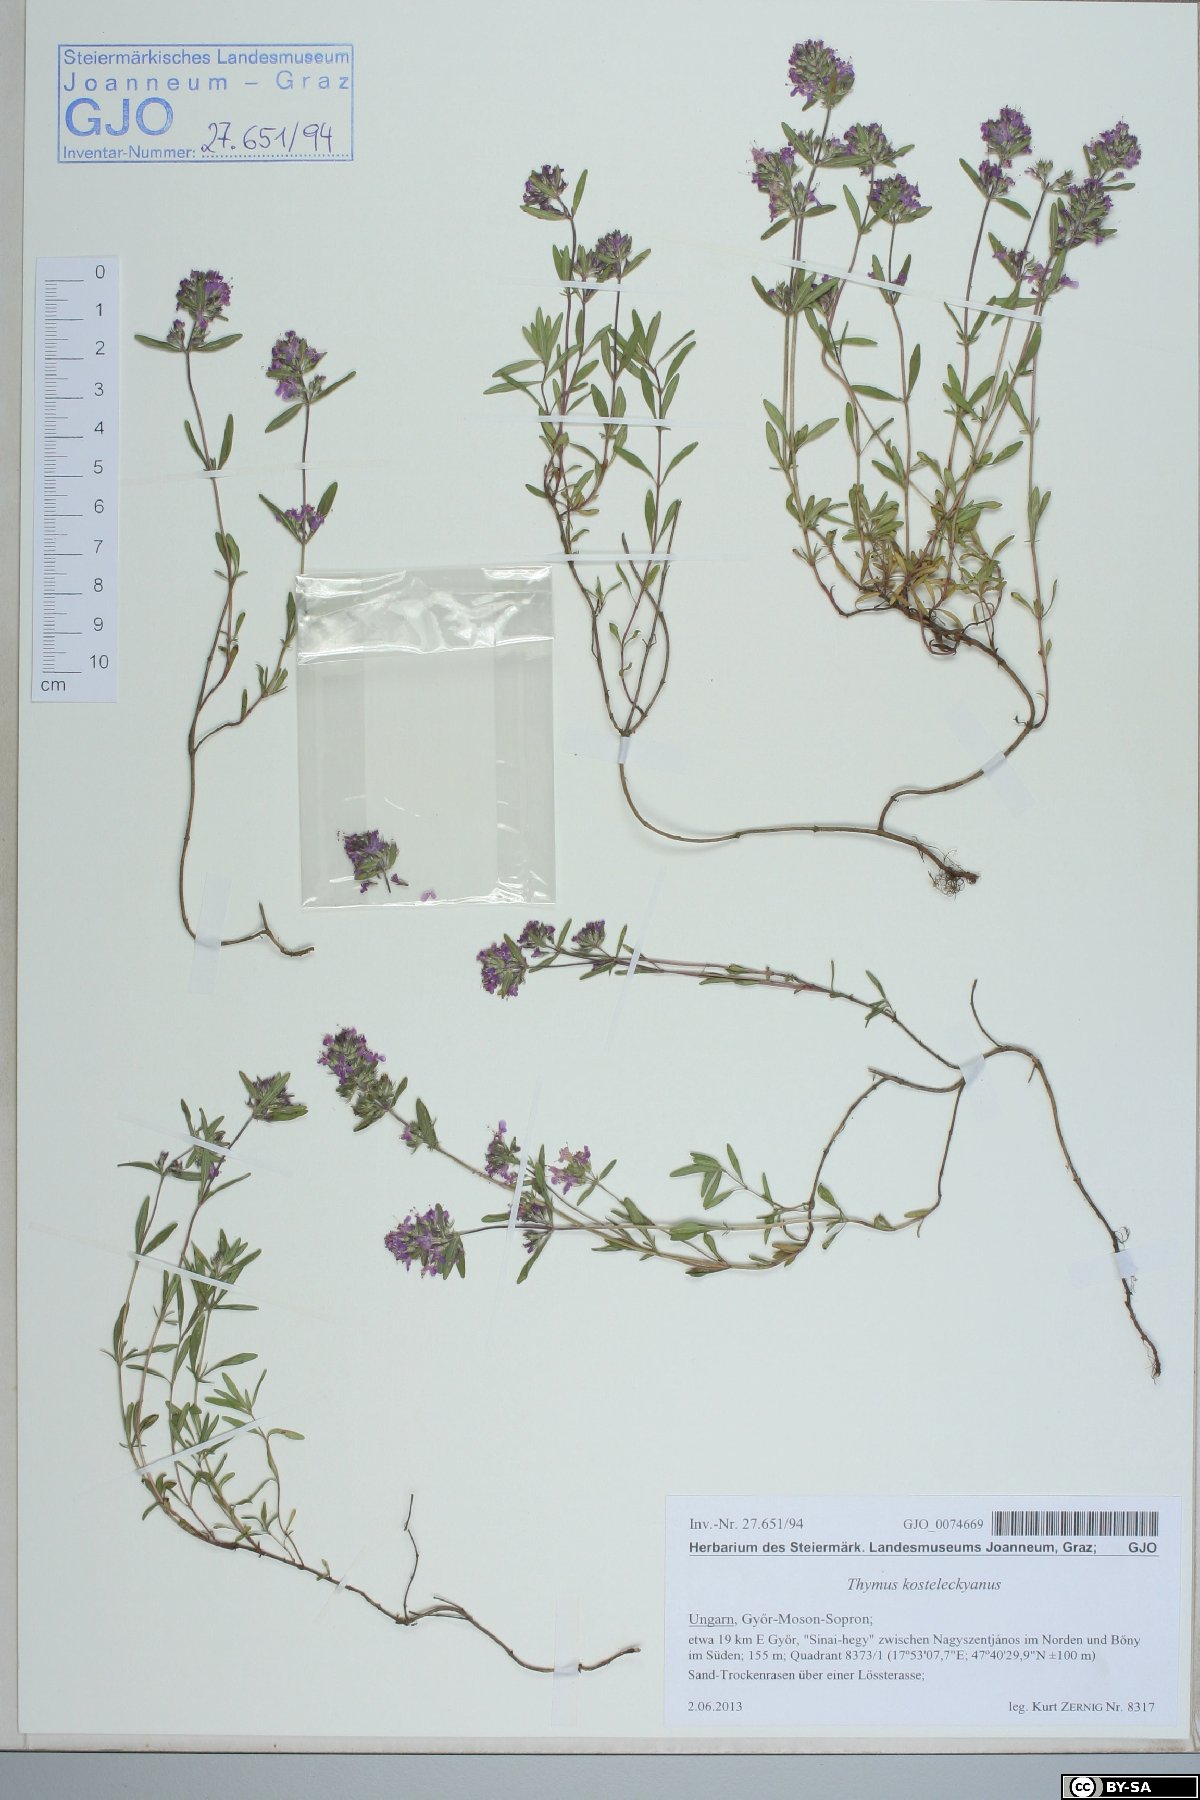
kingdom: Plantae
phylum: Tracheophyta
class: Magnoliopsida
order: Lamiales
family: Lamiaceae
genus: Thymus
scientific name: Thymus kosteleckyanus
